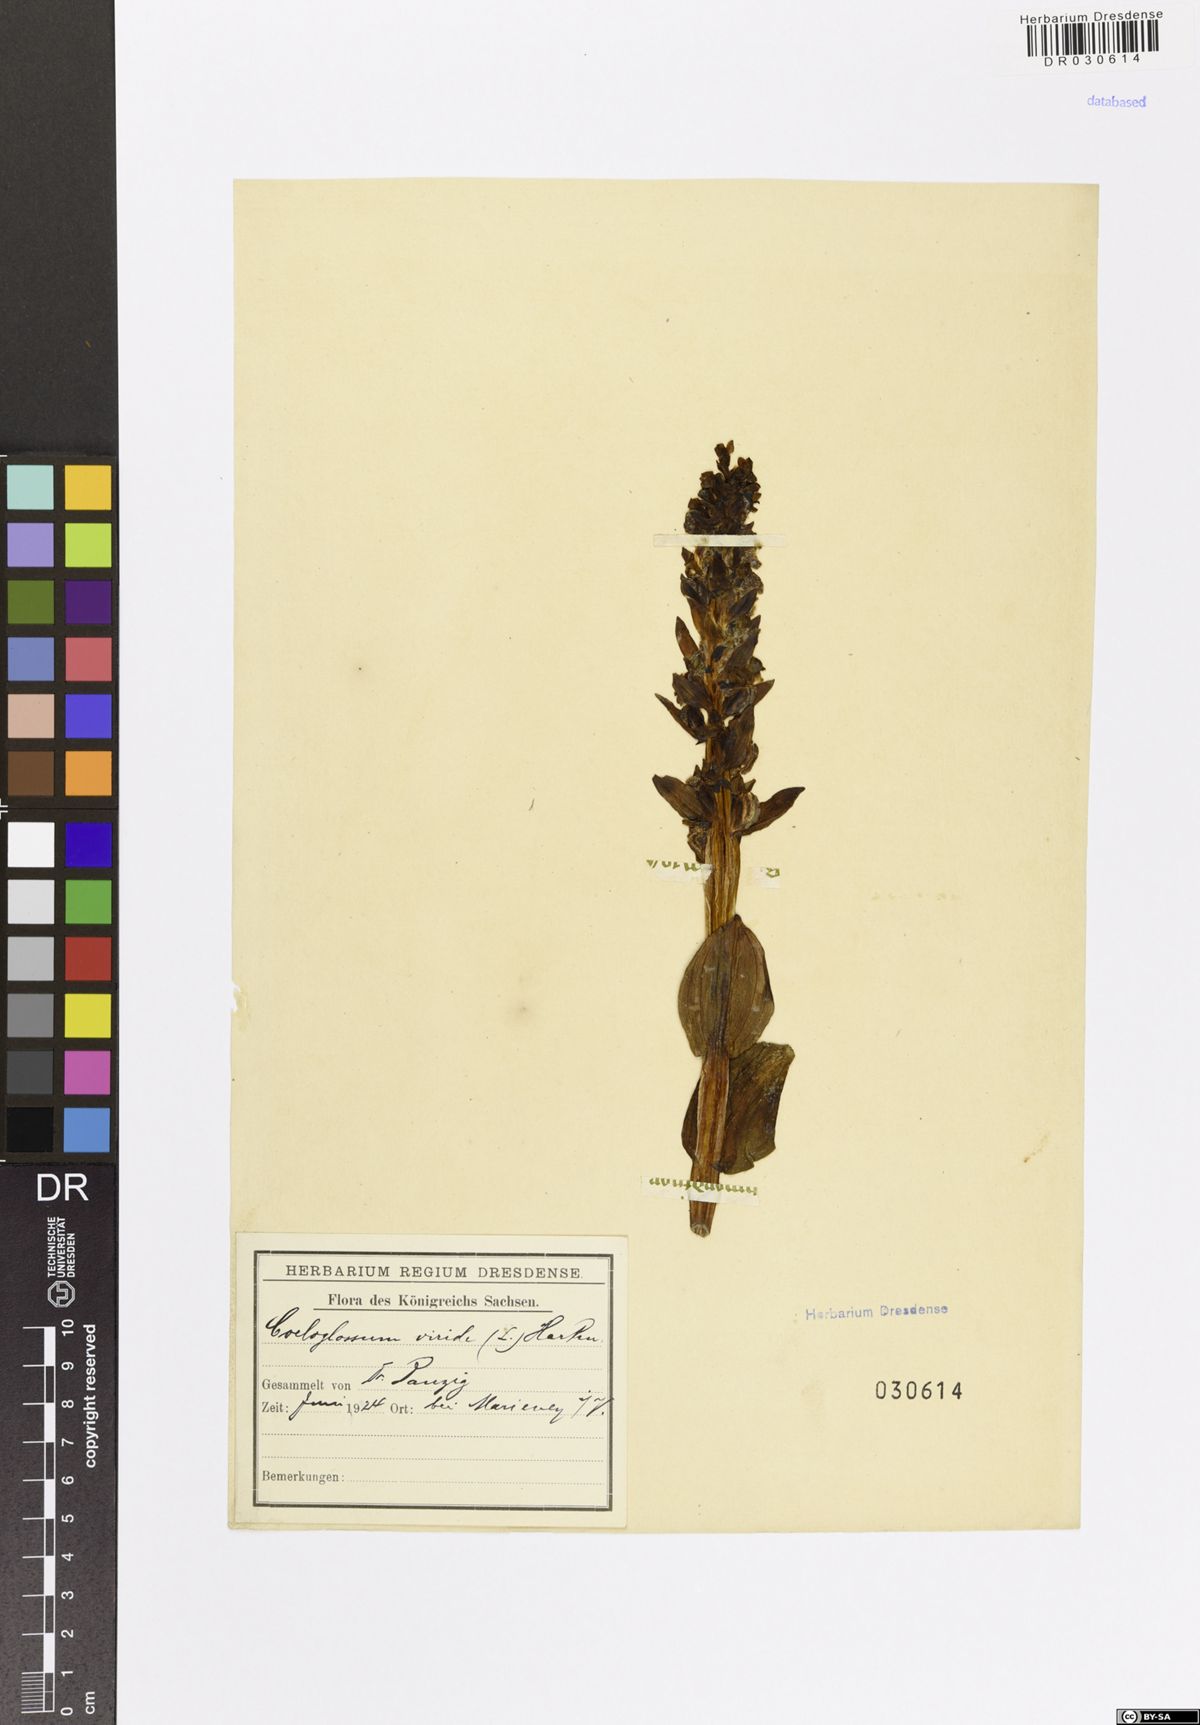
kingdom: Plantae
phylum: Tracheophyta
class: Liliopsida
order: Asparagales
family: Orchidaceae
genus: Dactylorhiza
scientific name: Dactylorhiza viridis
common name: Longbract frog orchid
